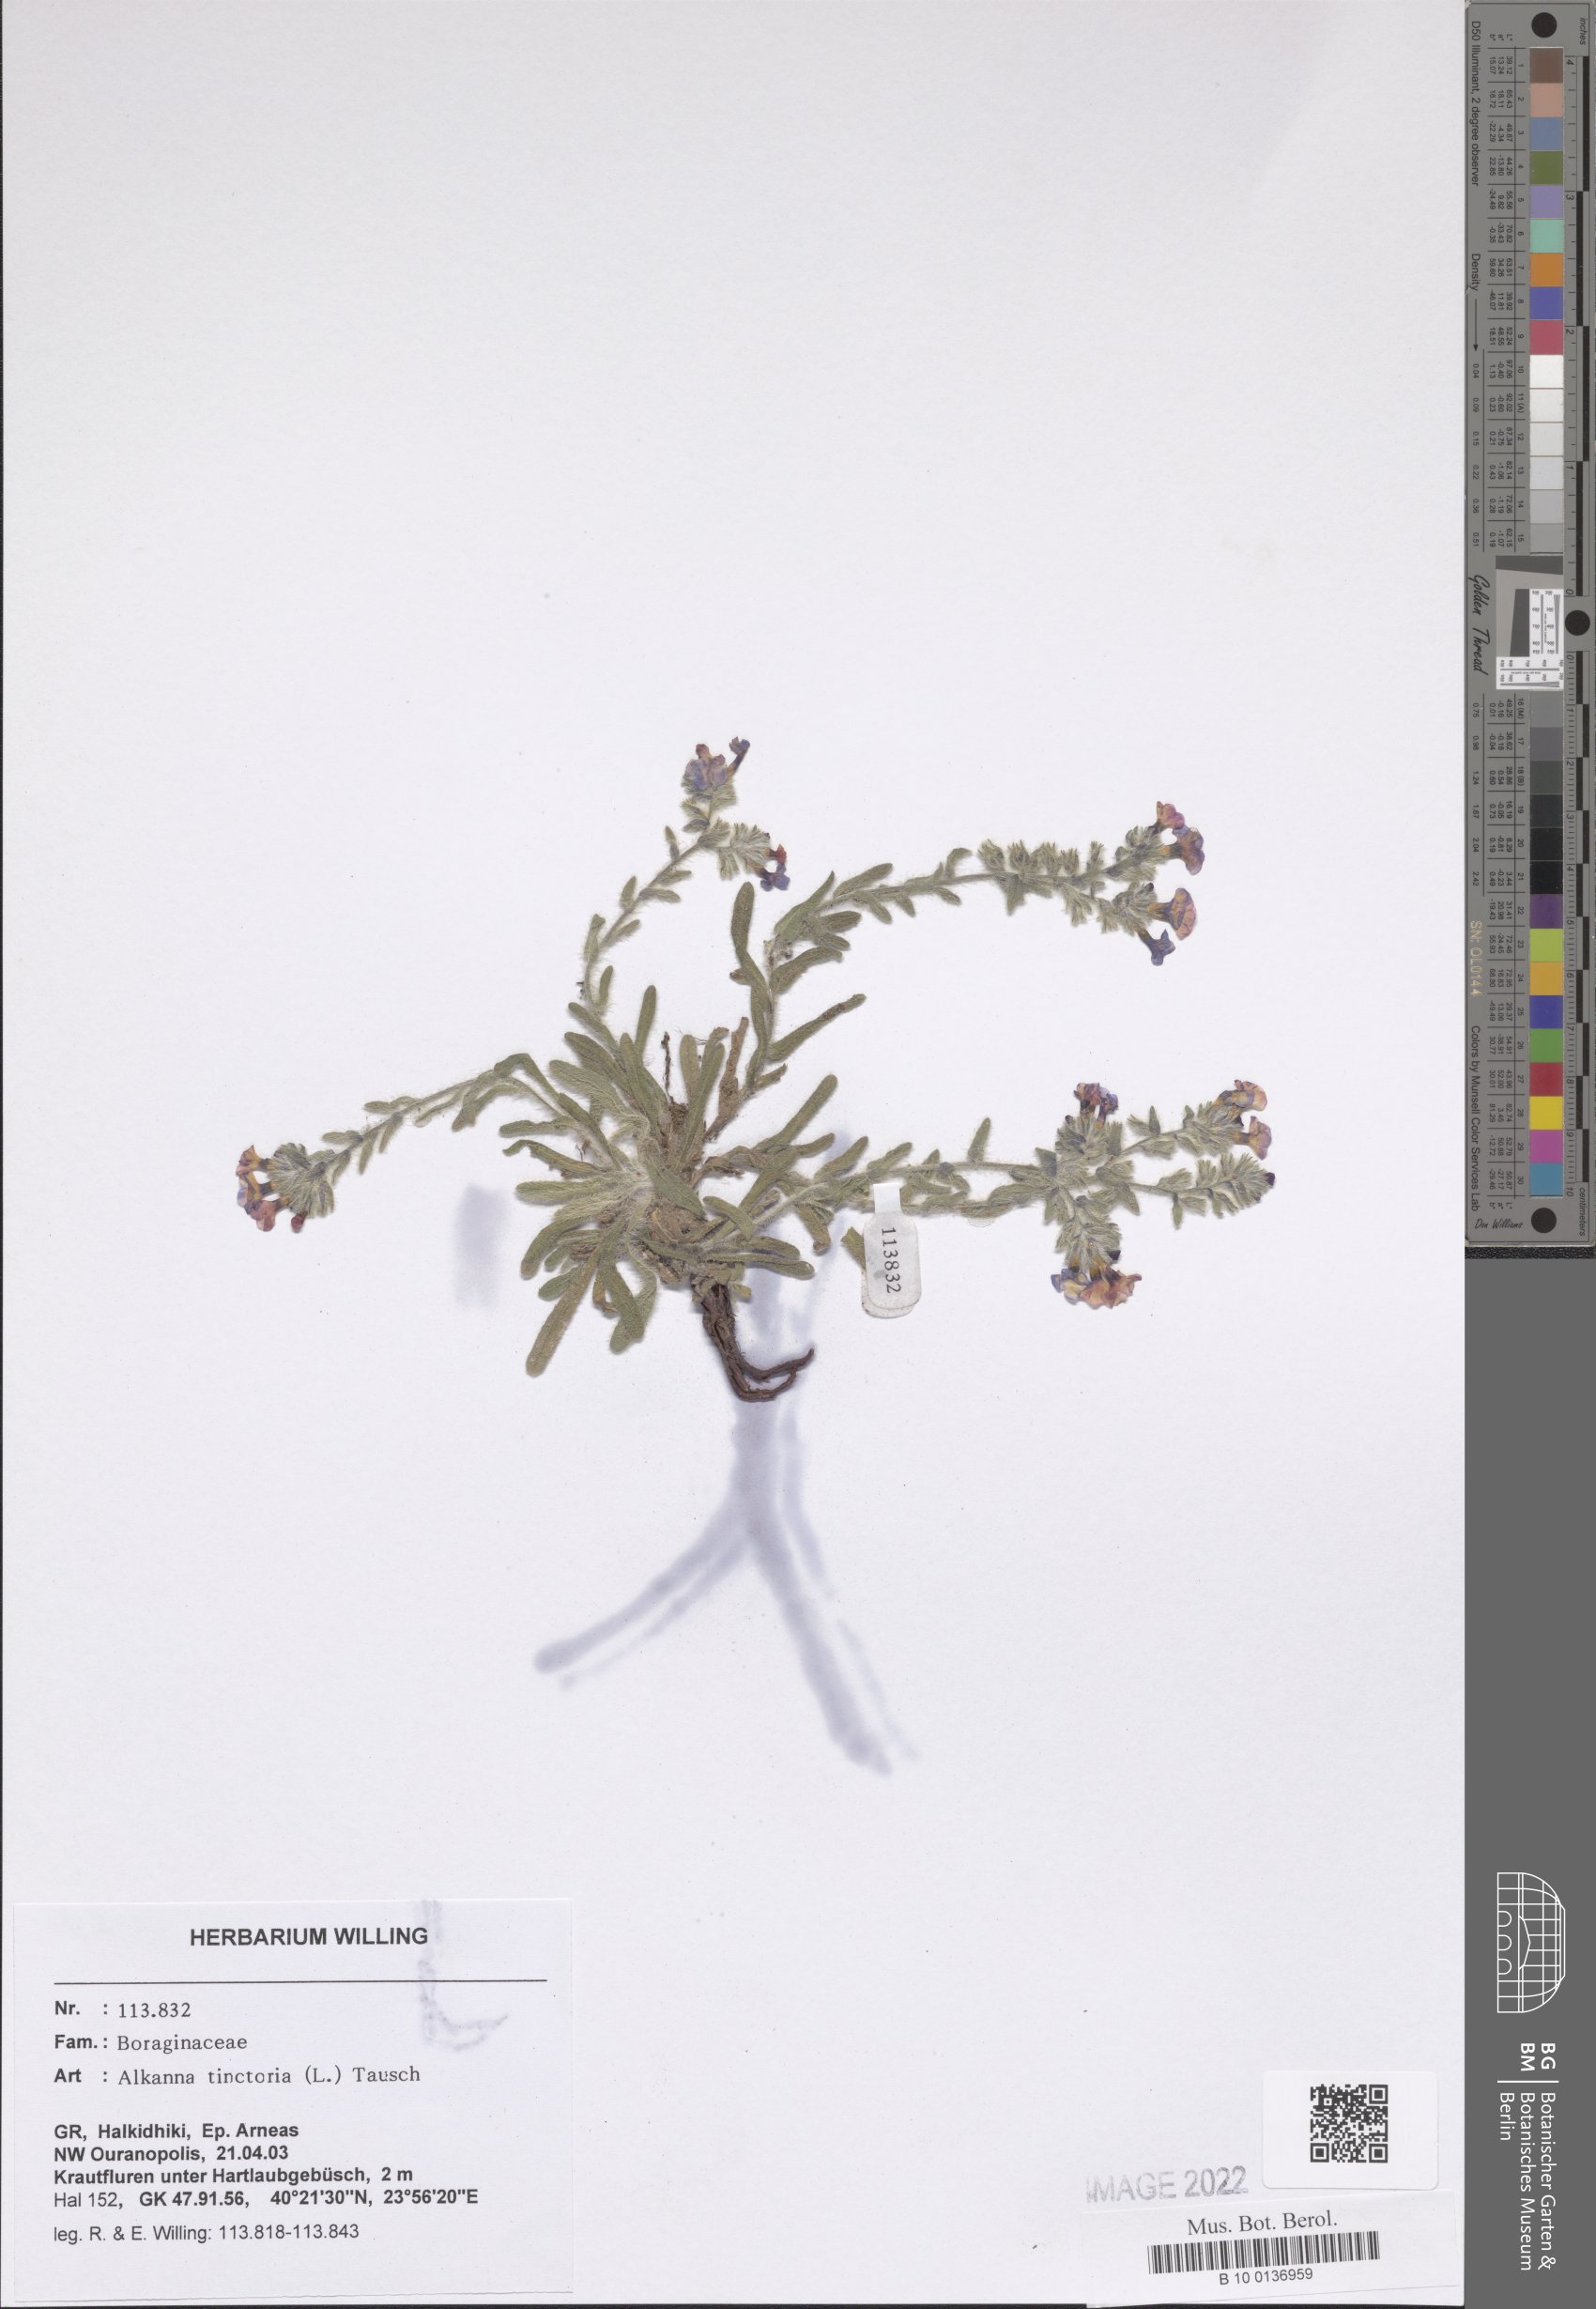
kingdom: Plantae
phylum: Tracheophyta
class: Magnoliopsida
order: Boraginales
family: Boraginaceae
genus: Alkanna
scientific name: Alkanna tinctoria
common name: Dyer's-alkanet
